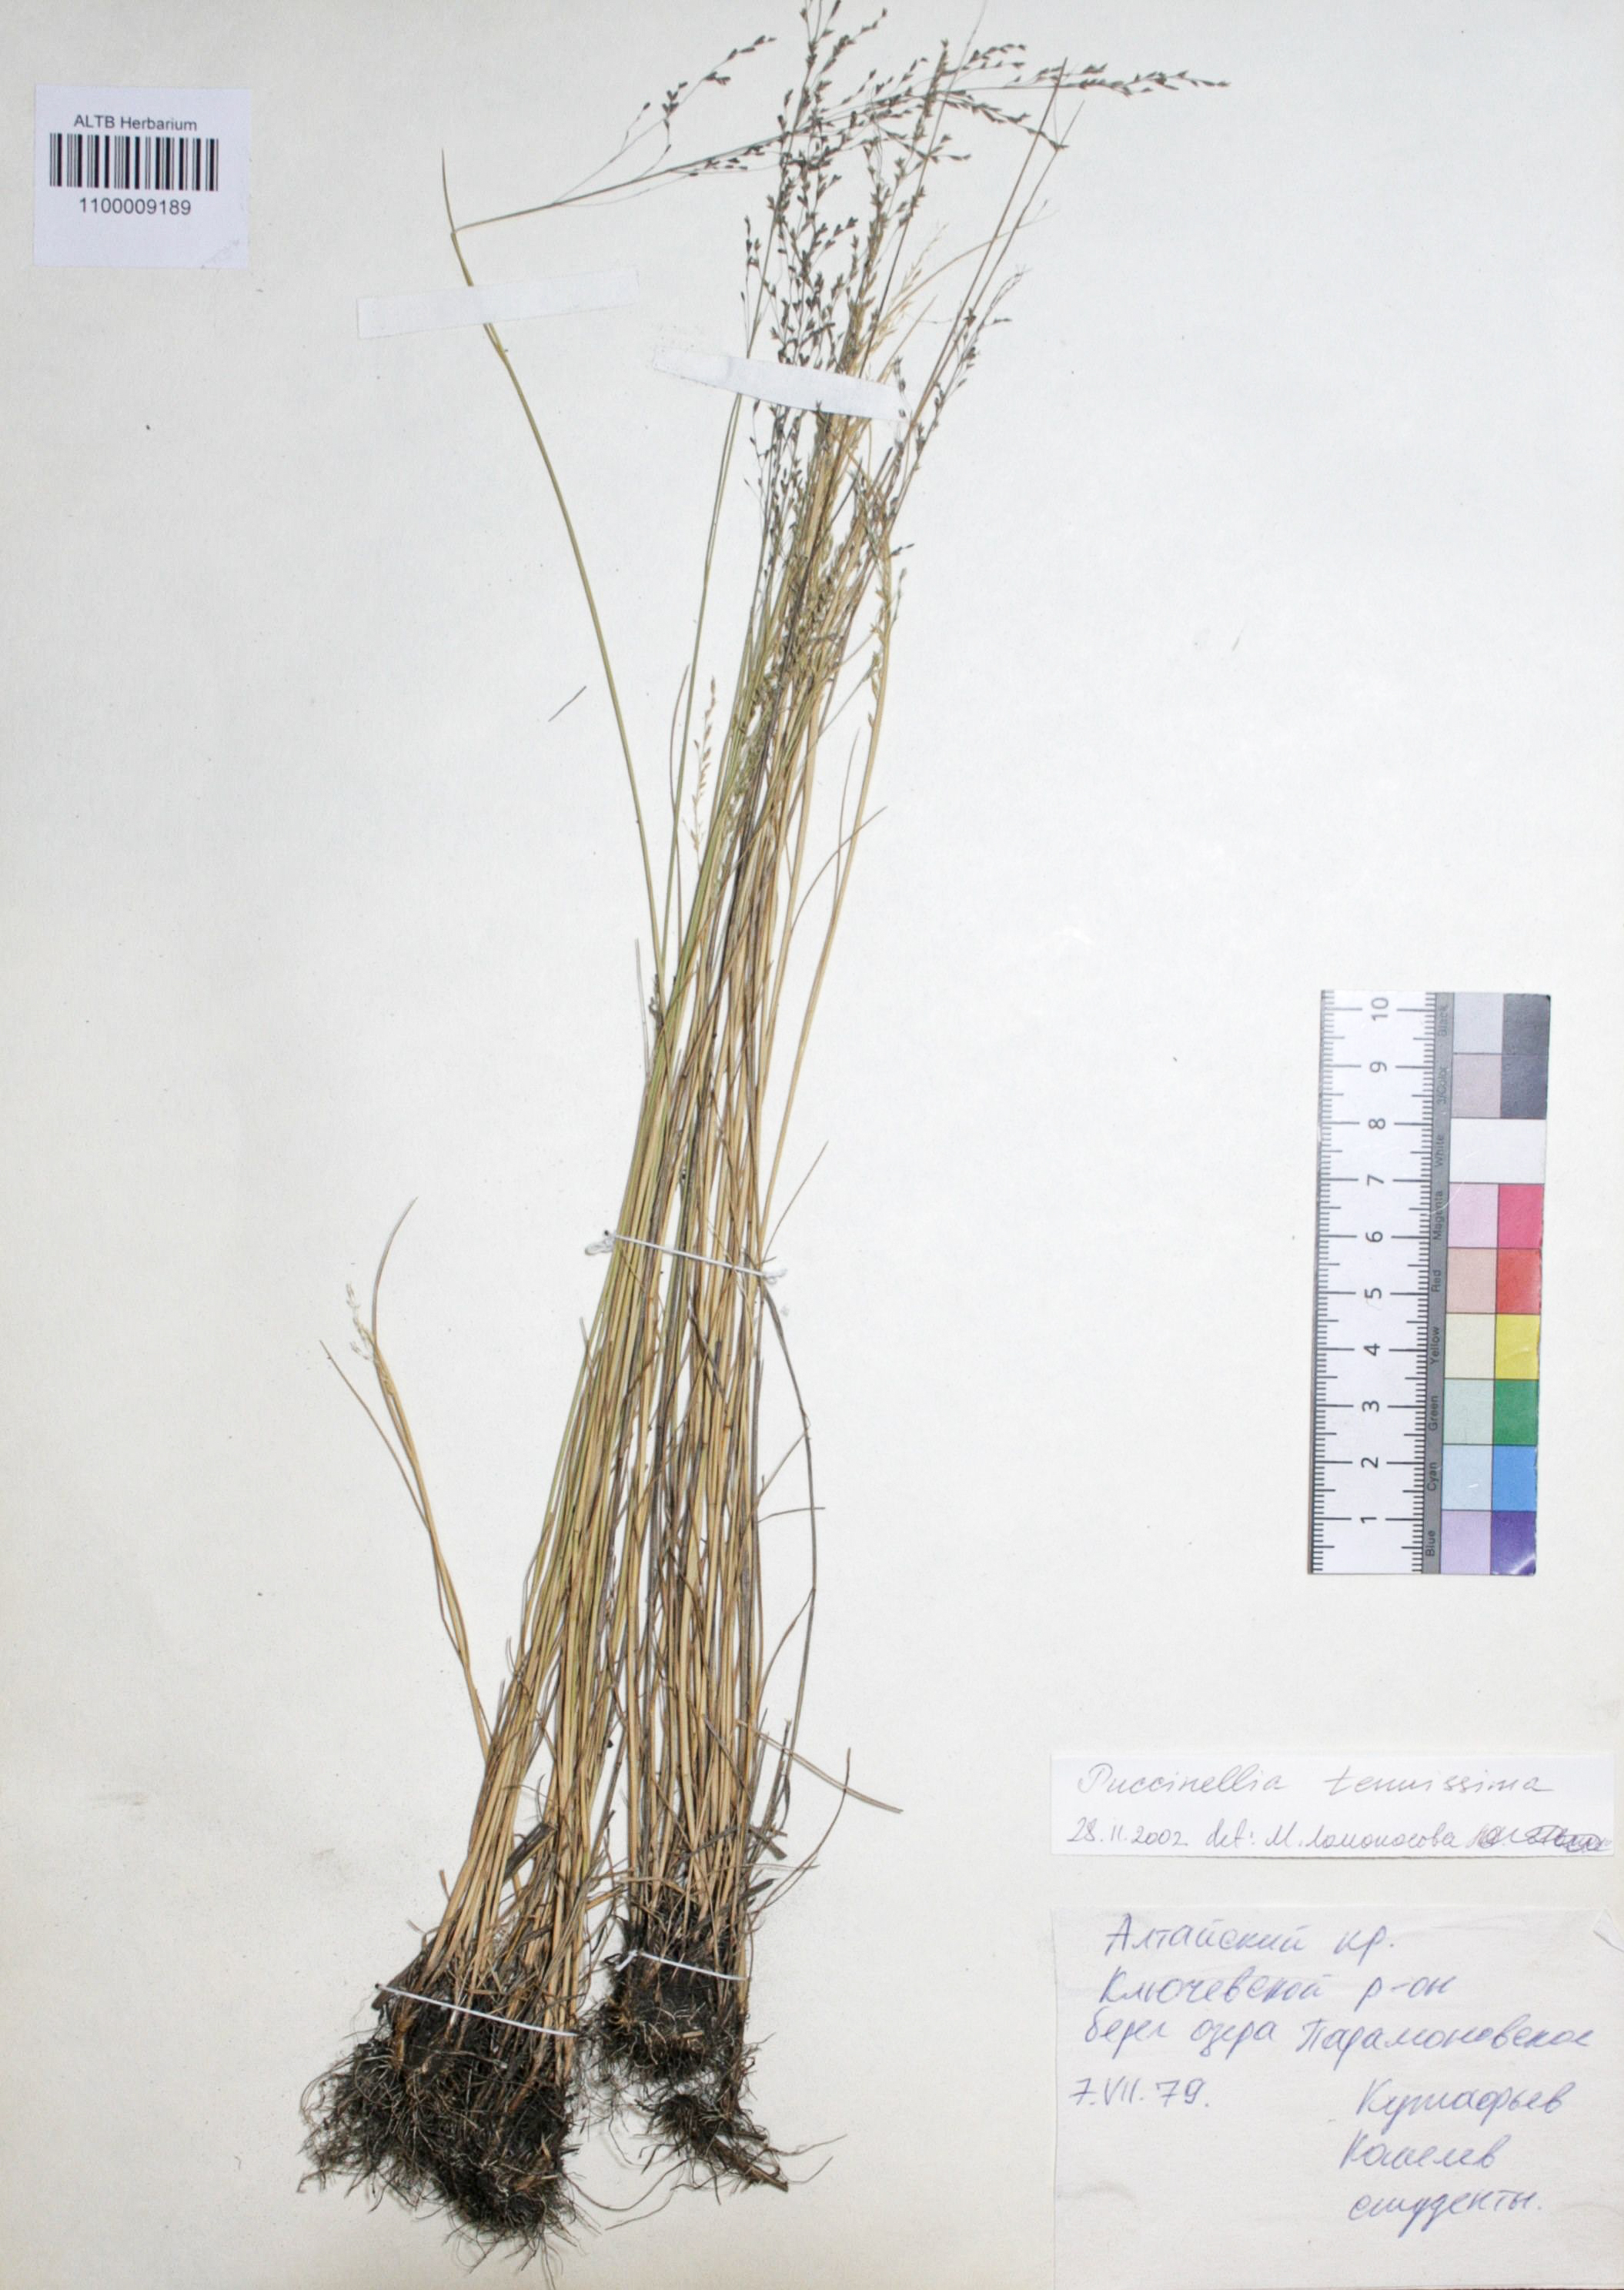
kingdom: Plantae
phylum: Tracheophyta
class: Liliopsida
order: Poales
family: Poaceae
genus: Puccinellia
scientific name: Puccinellia tenuissima
